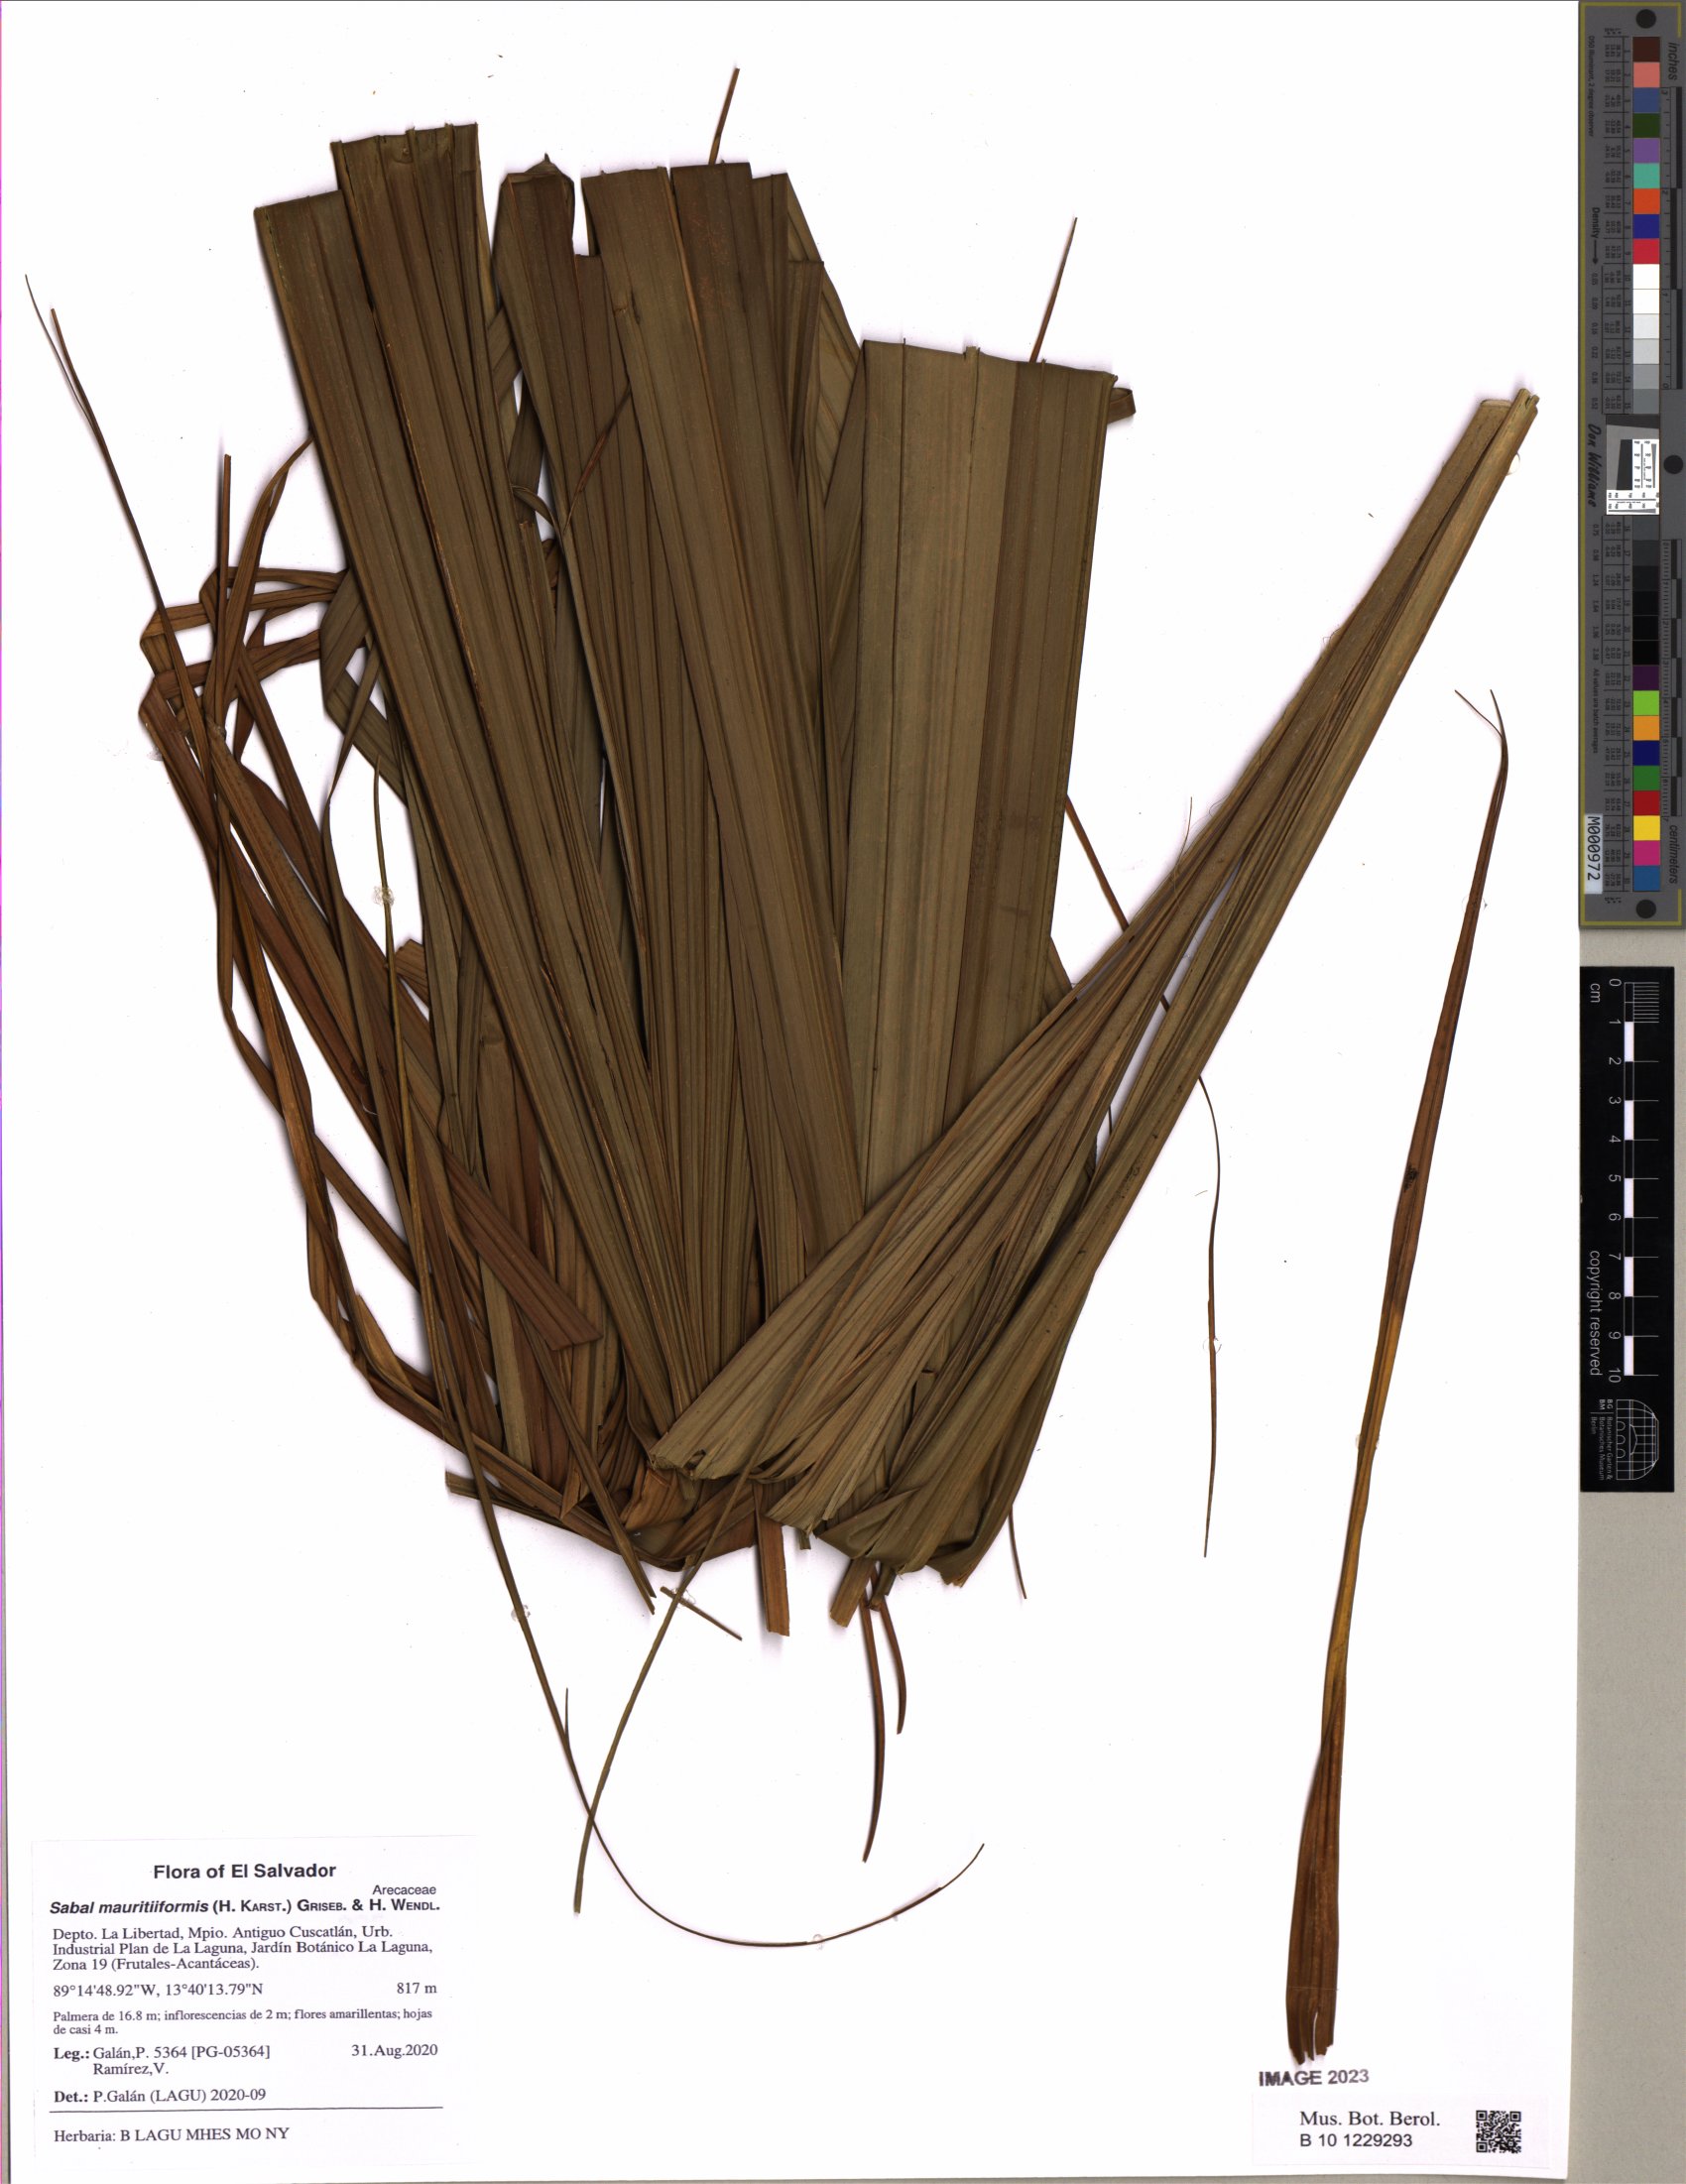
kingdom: Plantae
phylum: Tracheophyta
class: Liliopsida
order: Arecales
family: Arecaceae
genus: Sabal
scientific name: Sabal mauritiiformis
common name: Trinidad palm
